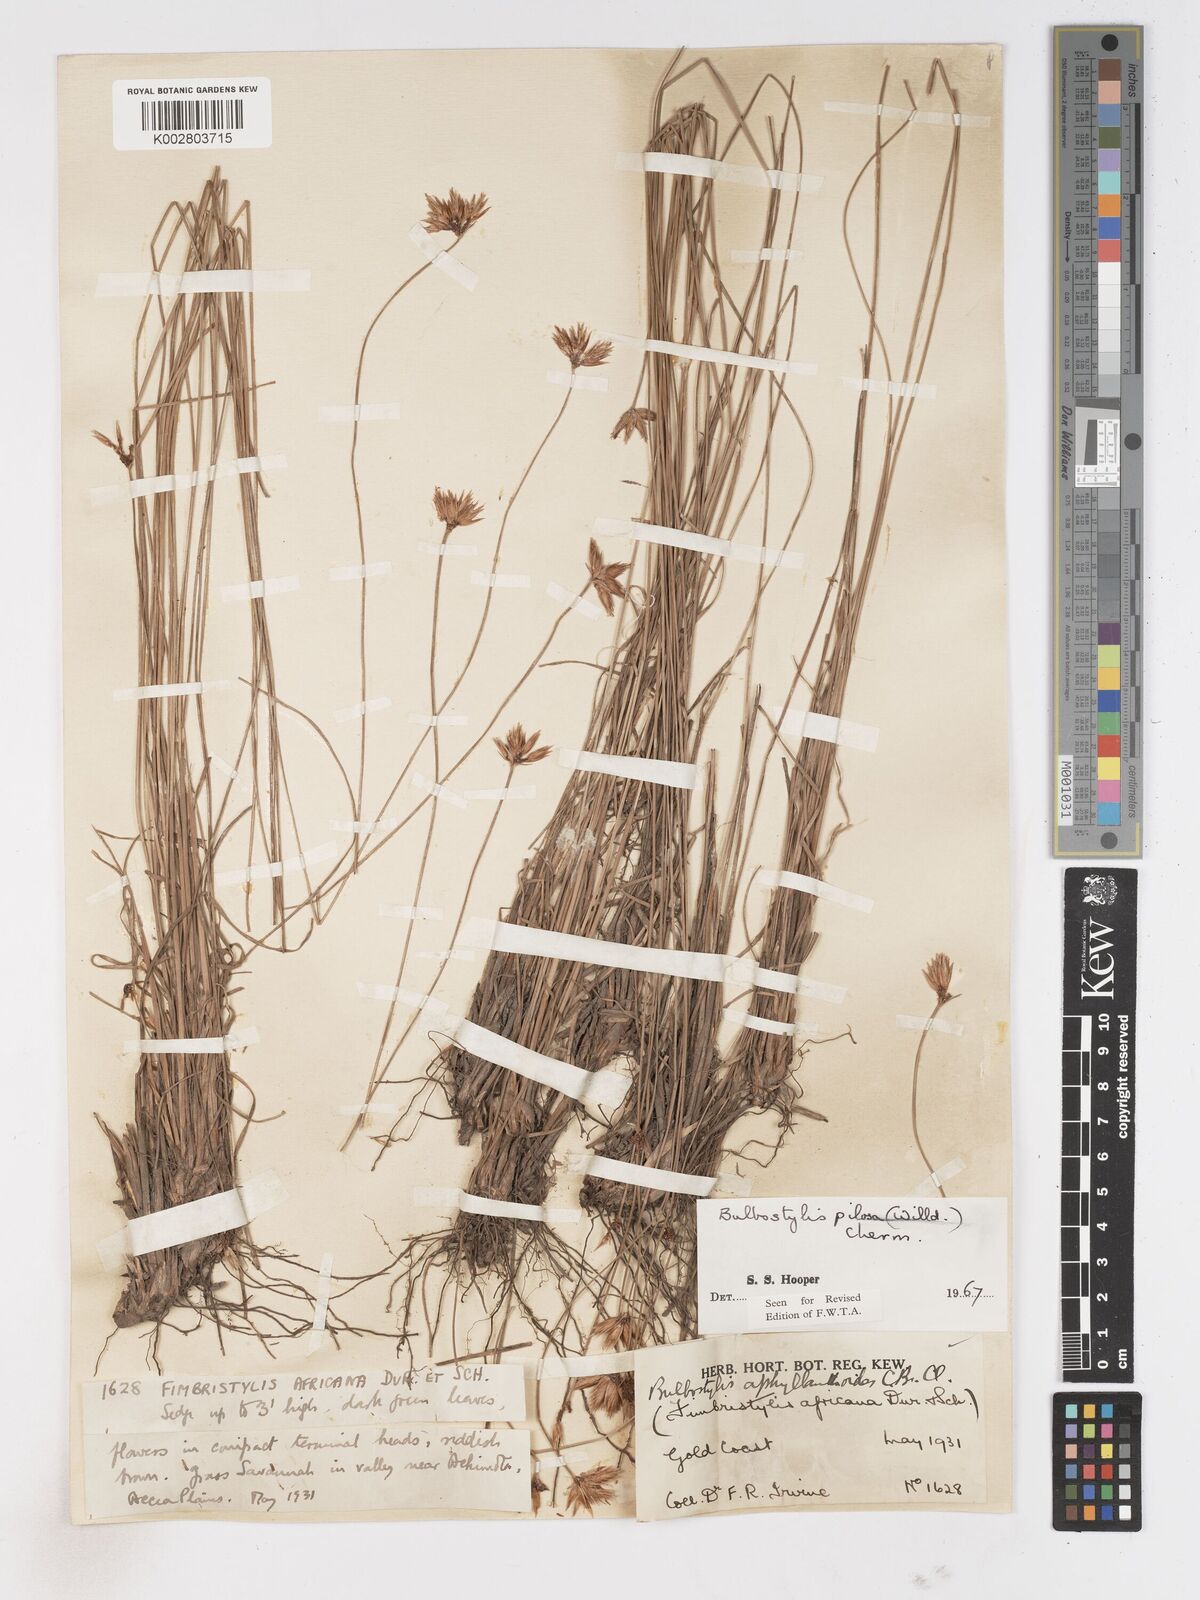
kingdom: Plantae
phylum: Tracheophyta
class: Liliopsida
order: Poales
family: Cyperaceae
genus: Bulbostylis
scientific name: Bulbostylis pilosa
